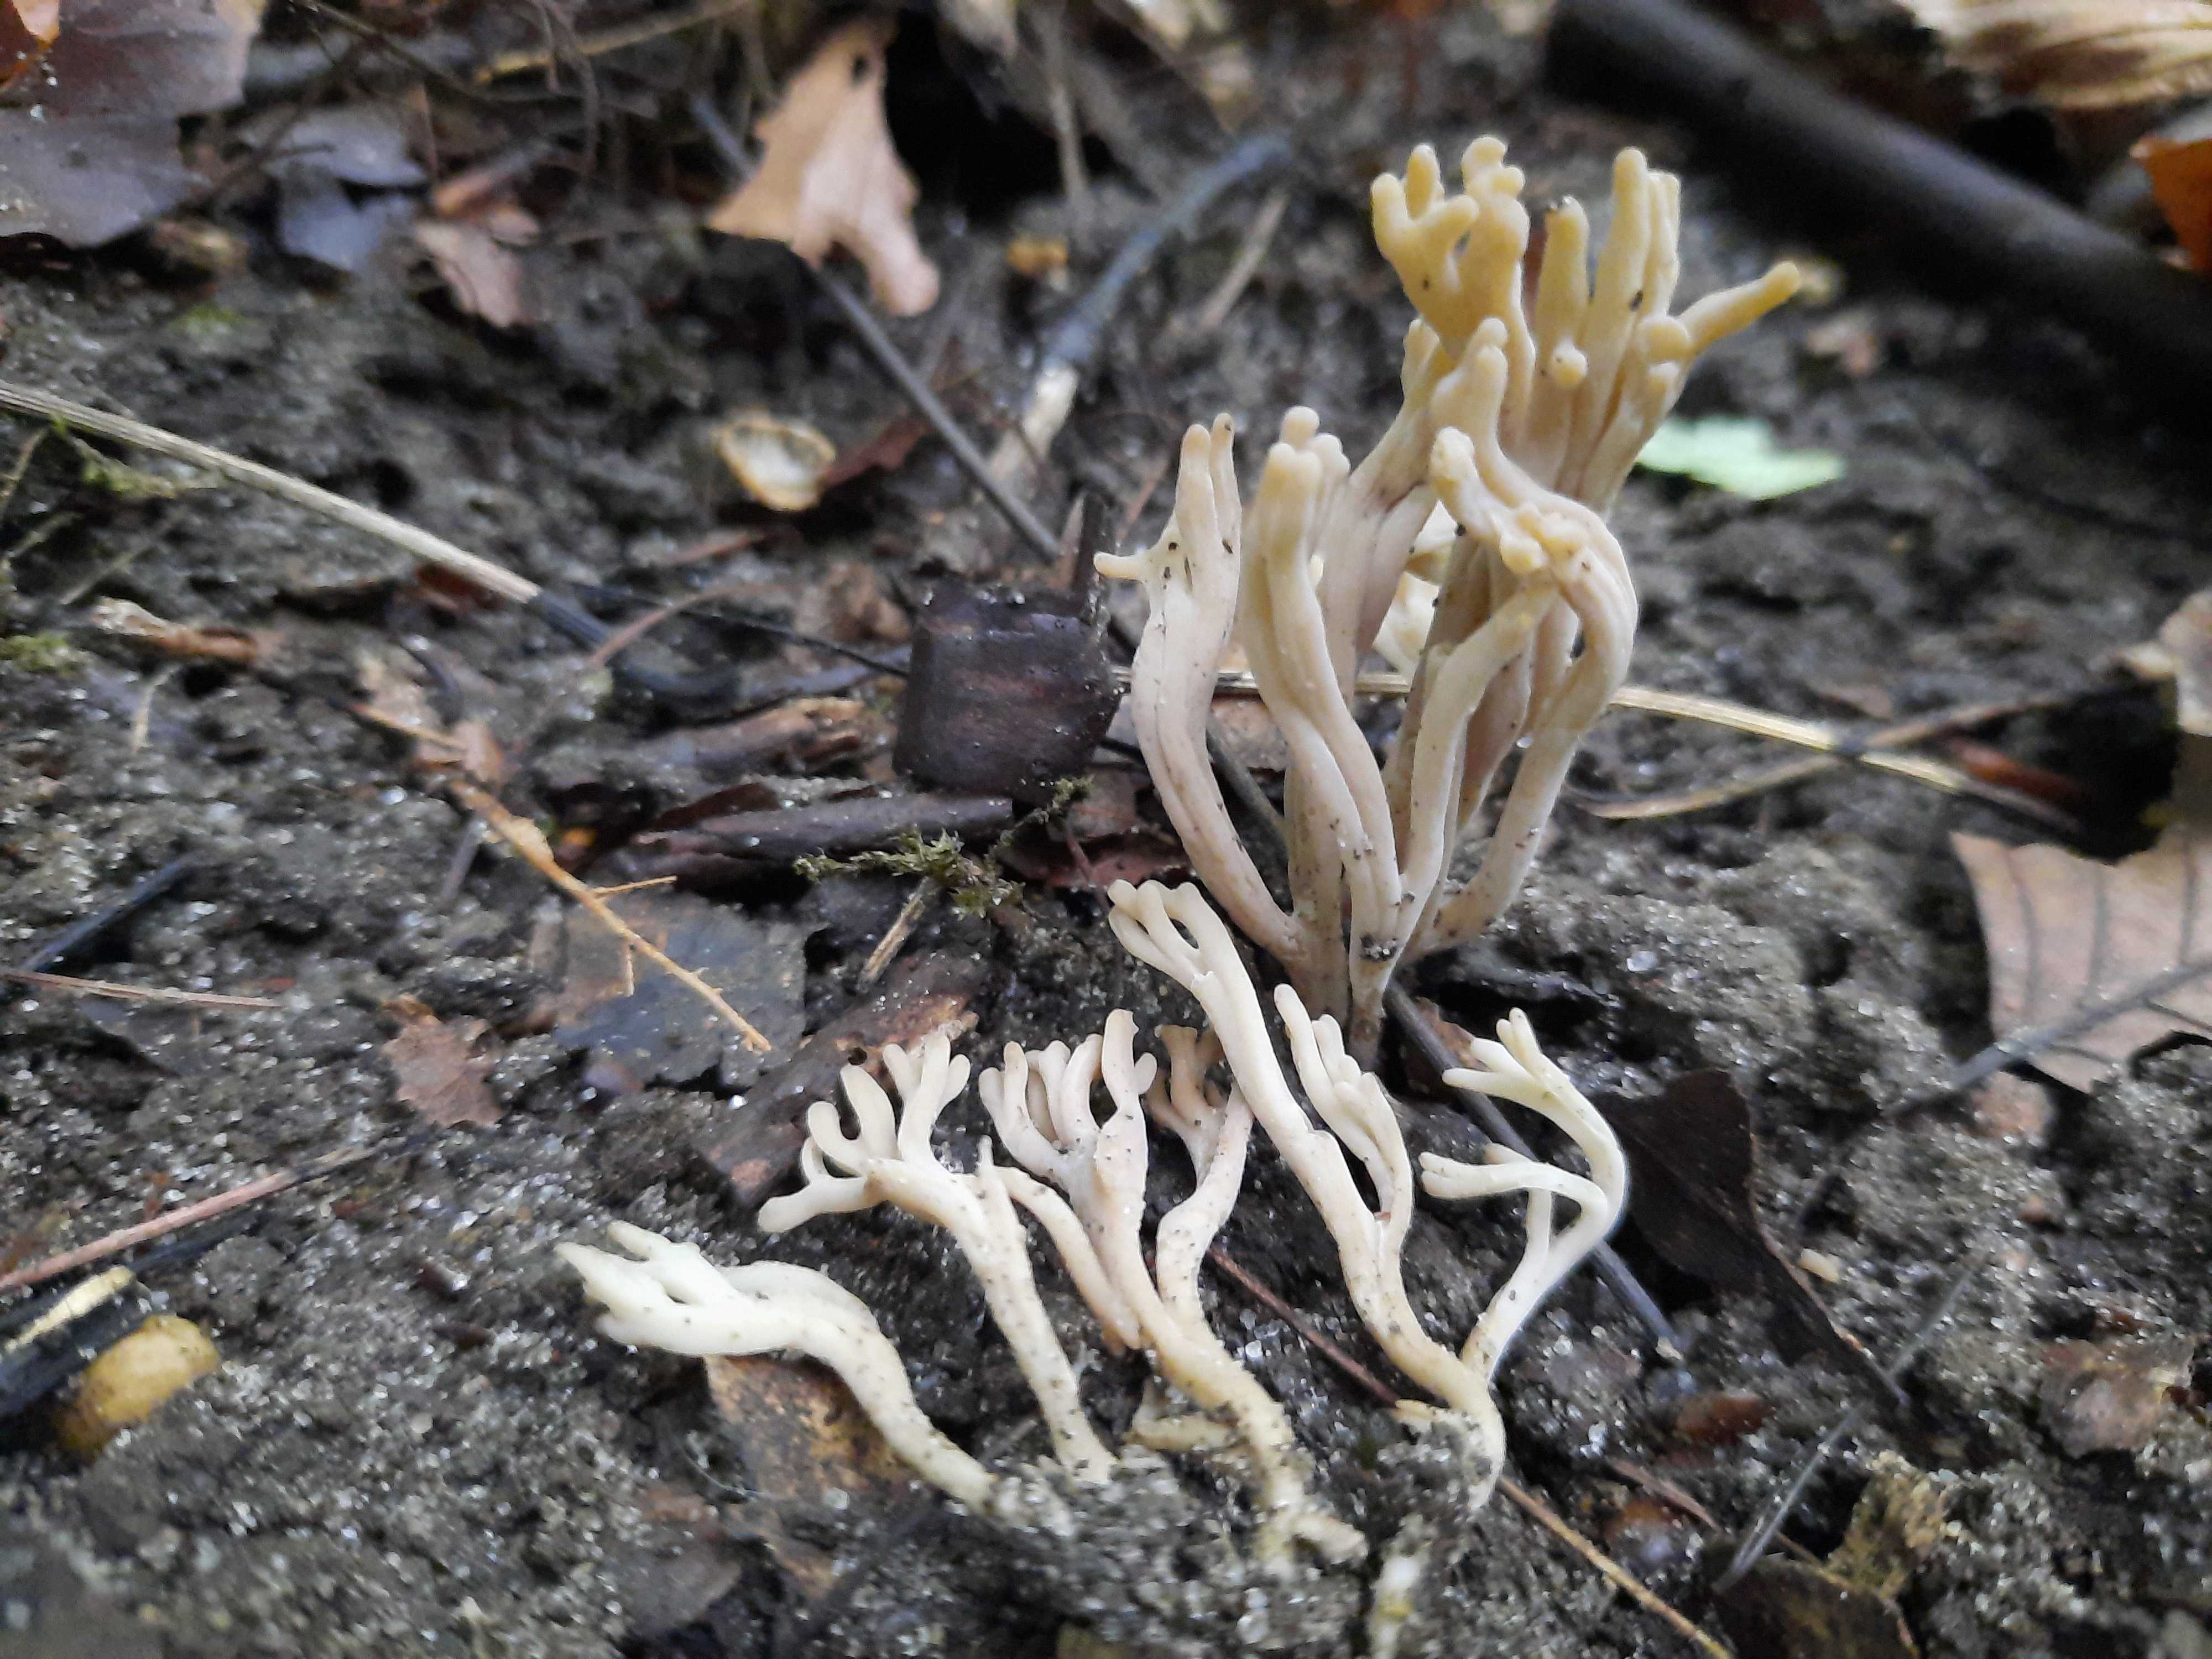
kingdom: Fungi
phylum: Basidiomycota
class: Agaricomycetes
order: Agaricales
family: Clavariaceae
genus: Clavulinopsis
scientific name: Clavulinopsis umbrinella
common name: gulgrå køllesvamp
